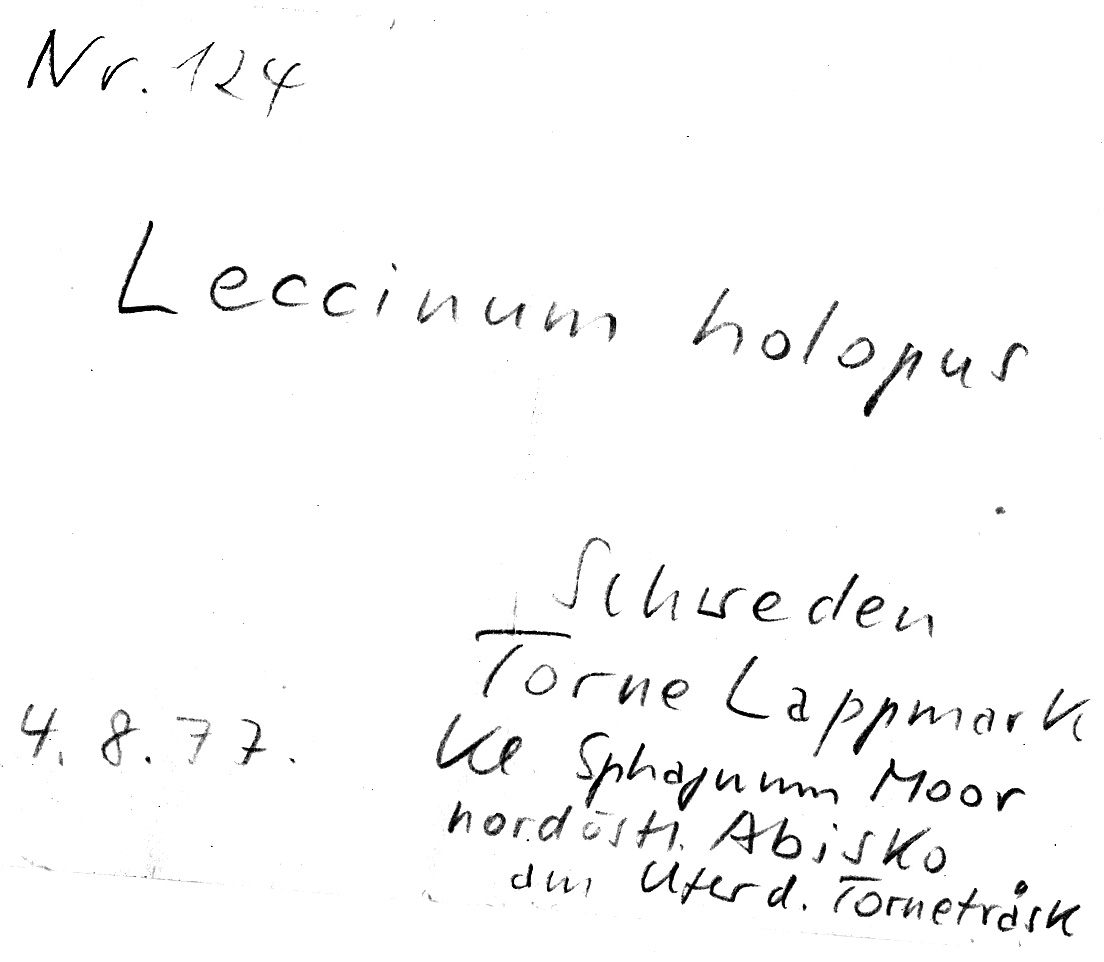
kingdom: Fungi
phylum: Basidiomycota
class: Agaricomycetes
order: Boletales
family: Boletaceae
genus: Leccinum
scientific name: Leccinum holopus
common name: Ghost bolete
